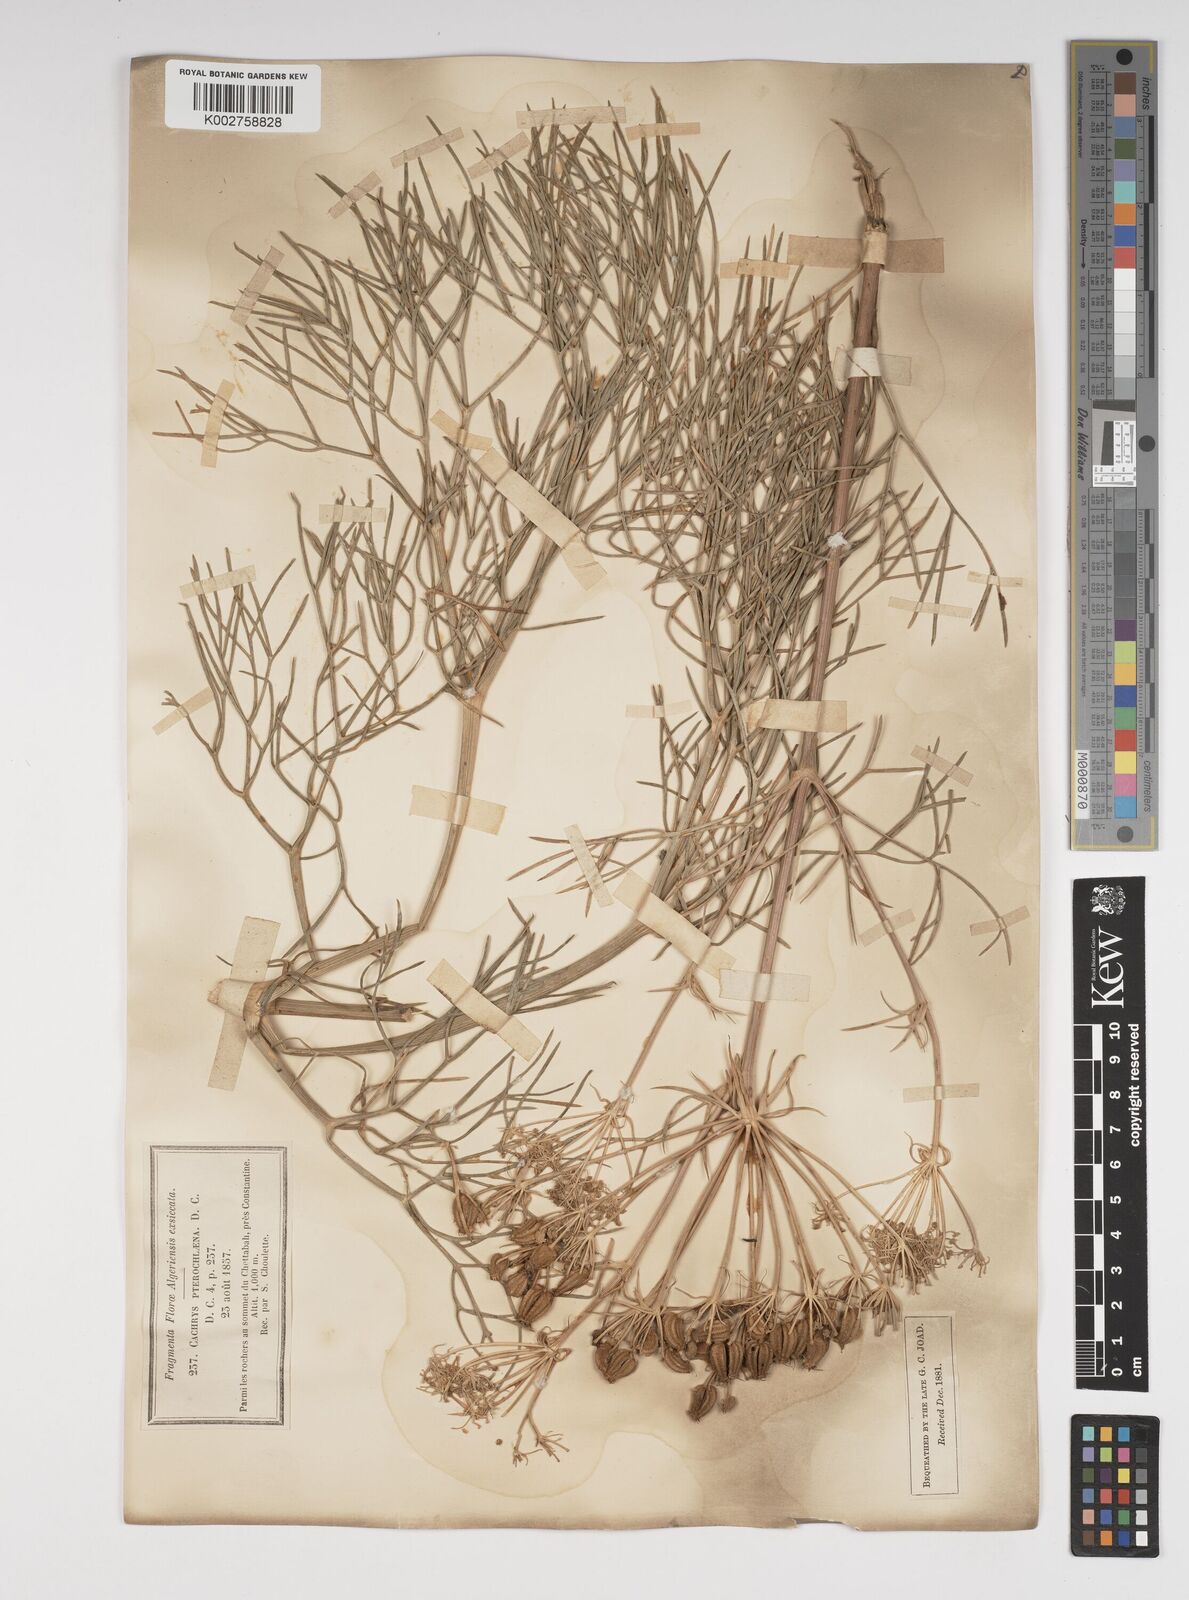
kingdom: Plantae
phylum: Tracheophyta
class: Magnoliopsida
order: Apiales
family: Apiaceae
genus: Cachrys
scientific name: Cachrys sicula
